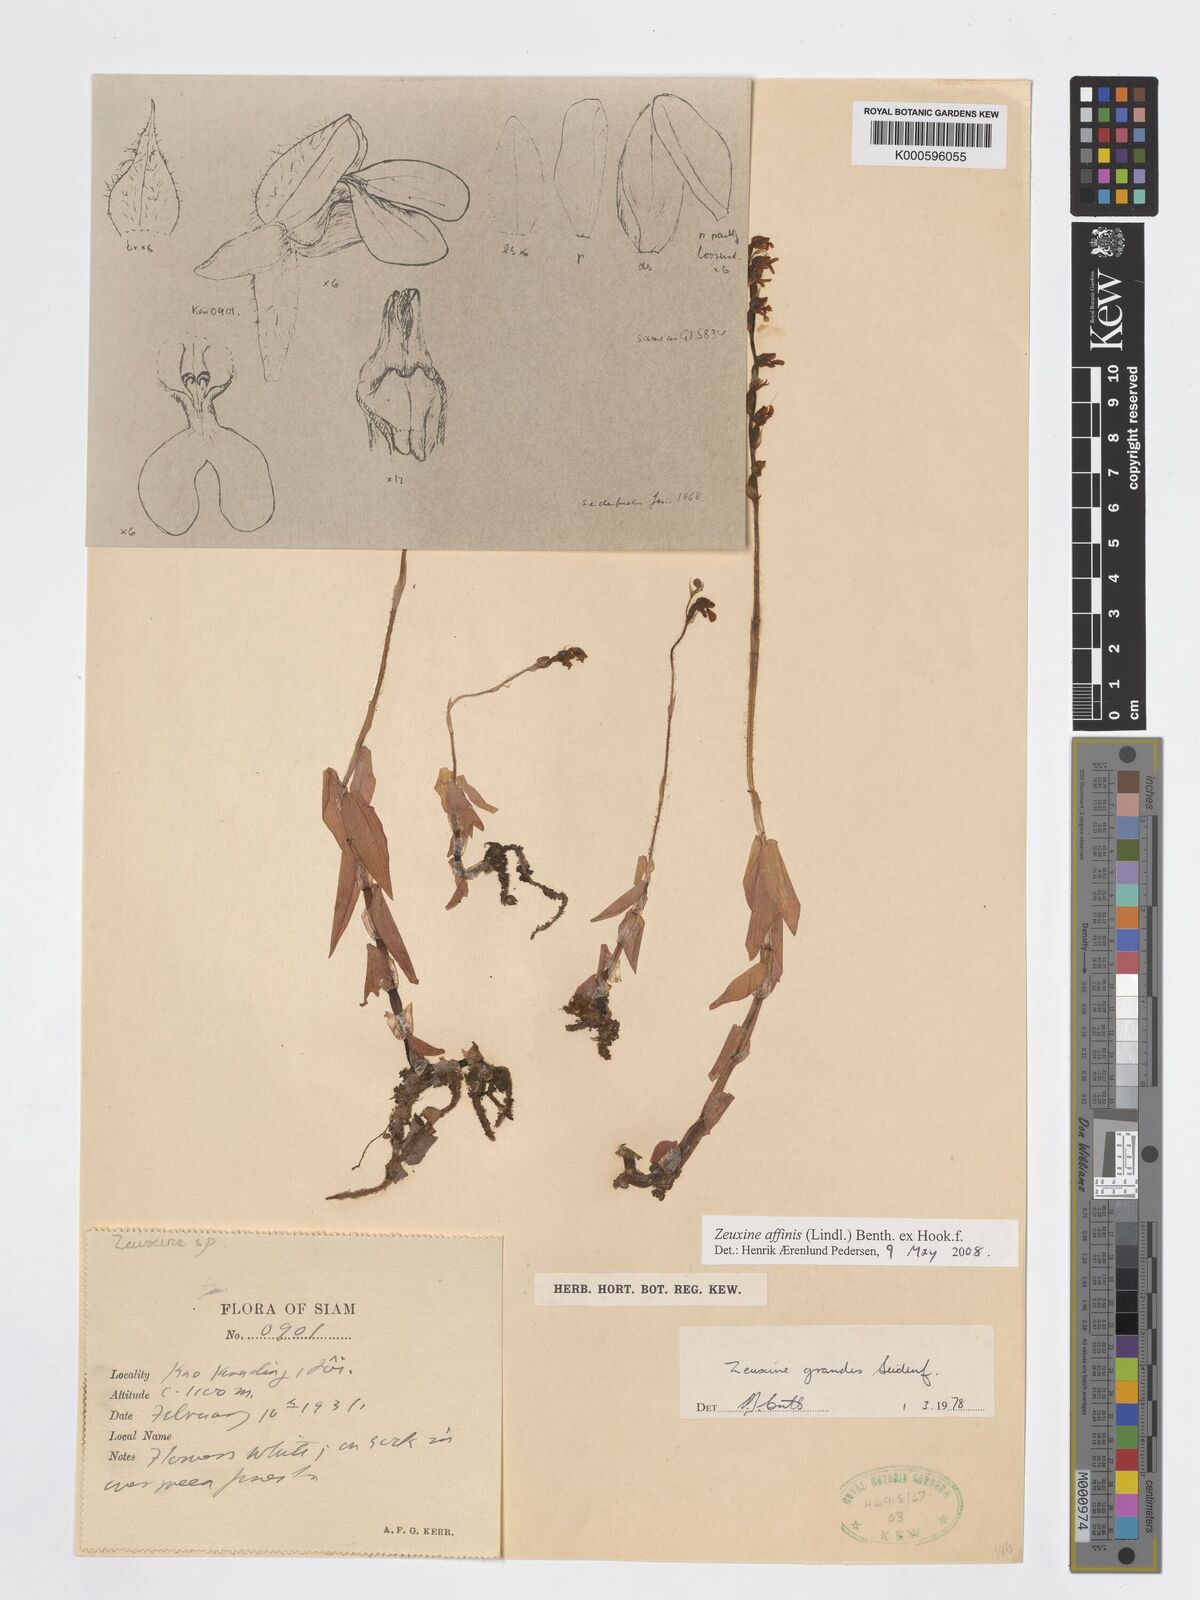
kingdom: Plantae
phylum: Tracheophyta
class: Liliopsida
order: Asparagales
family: Orchidaceae
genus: Zeuxine
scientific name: Zeuxine affinis
